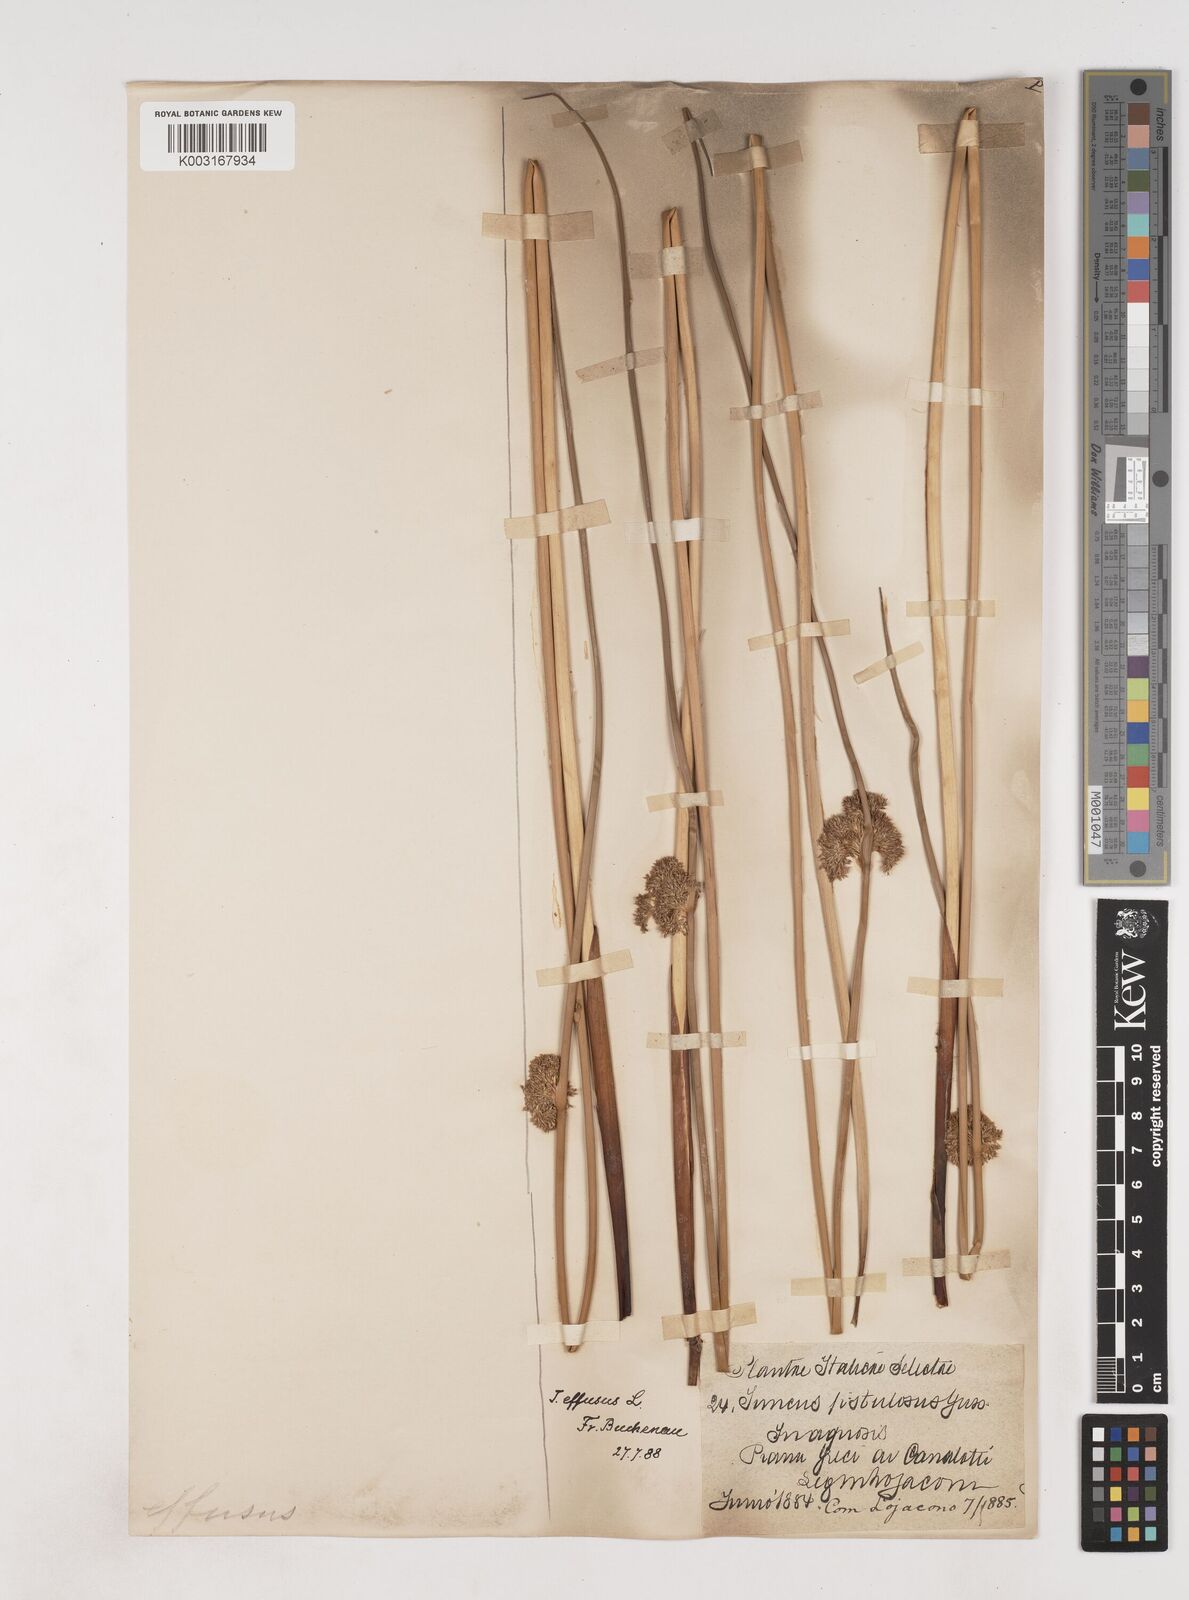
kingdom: Plantae
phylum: Tracheophyta
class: Liliopsida
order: Poales
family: Juncaceae
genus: Juncus
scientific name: Juncus effusus
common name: Soft rush
